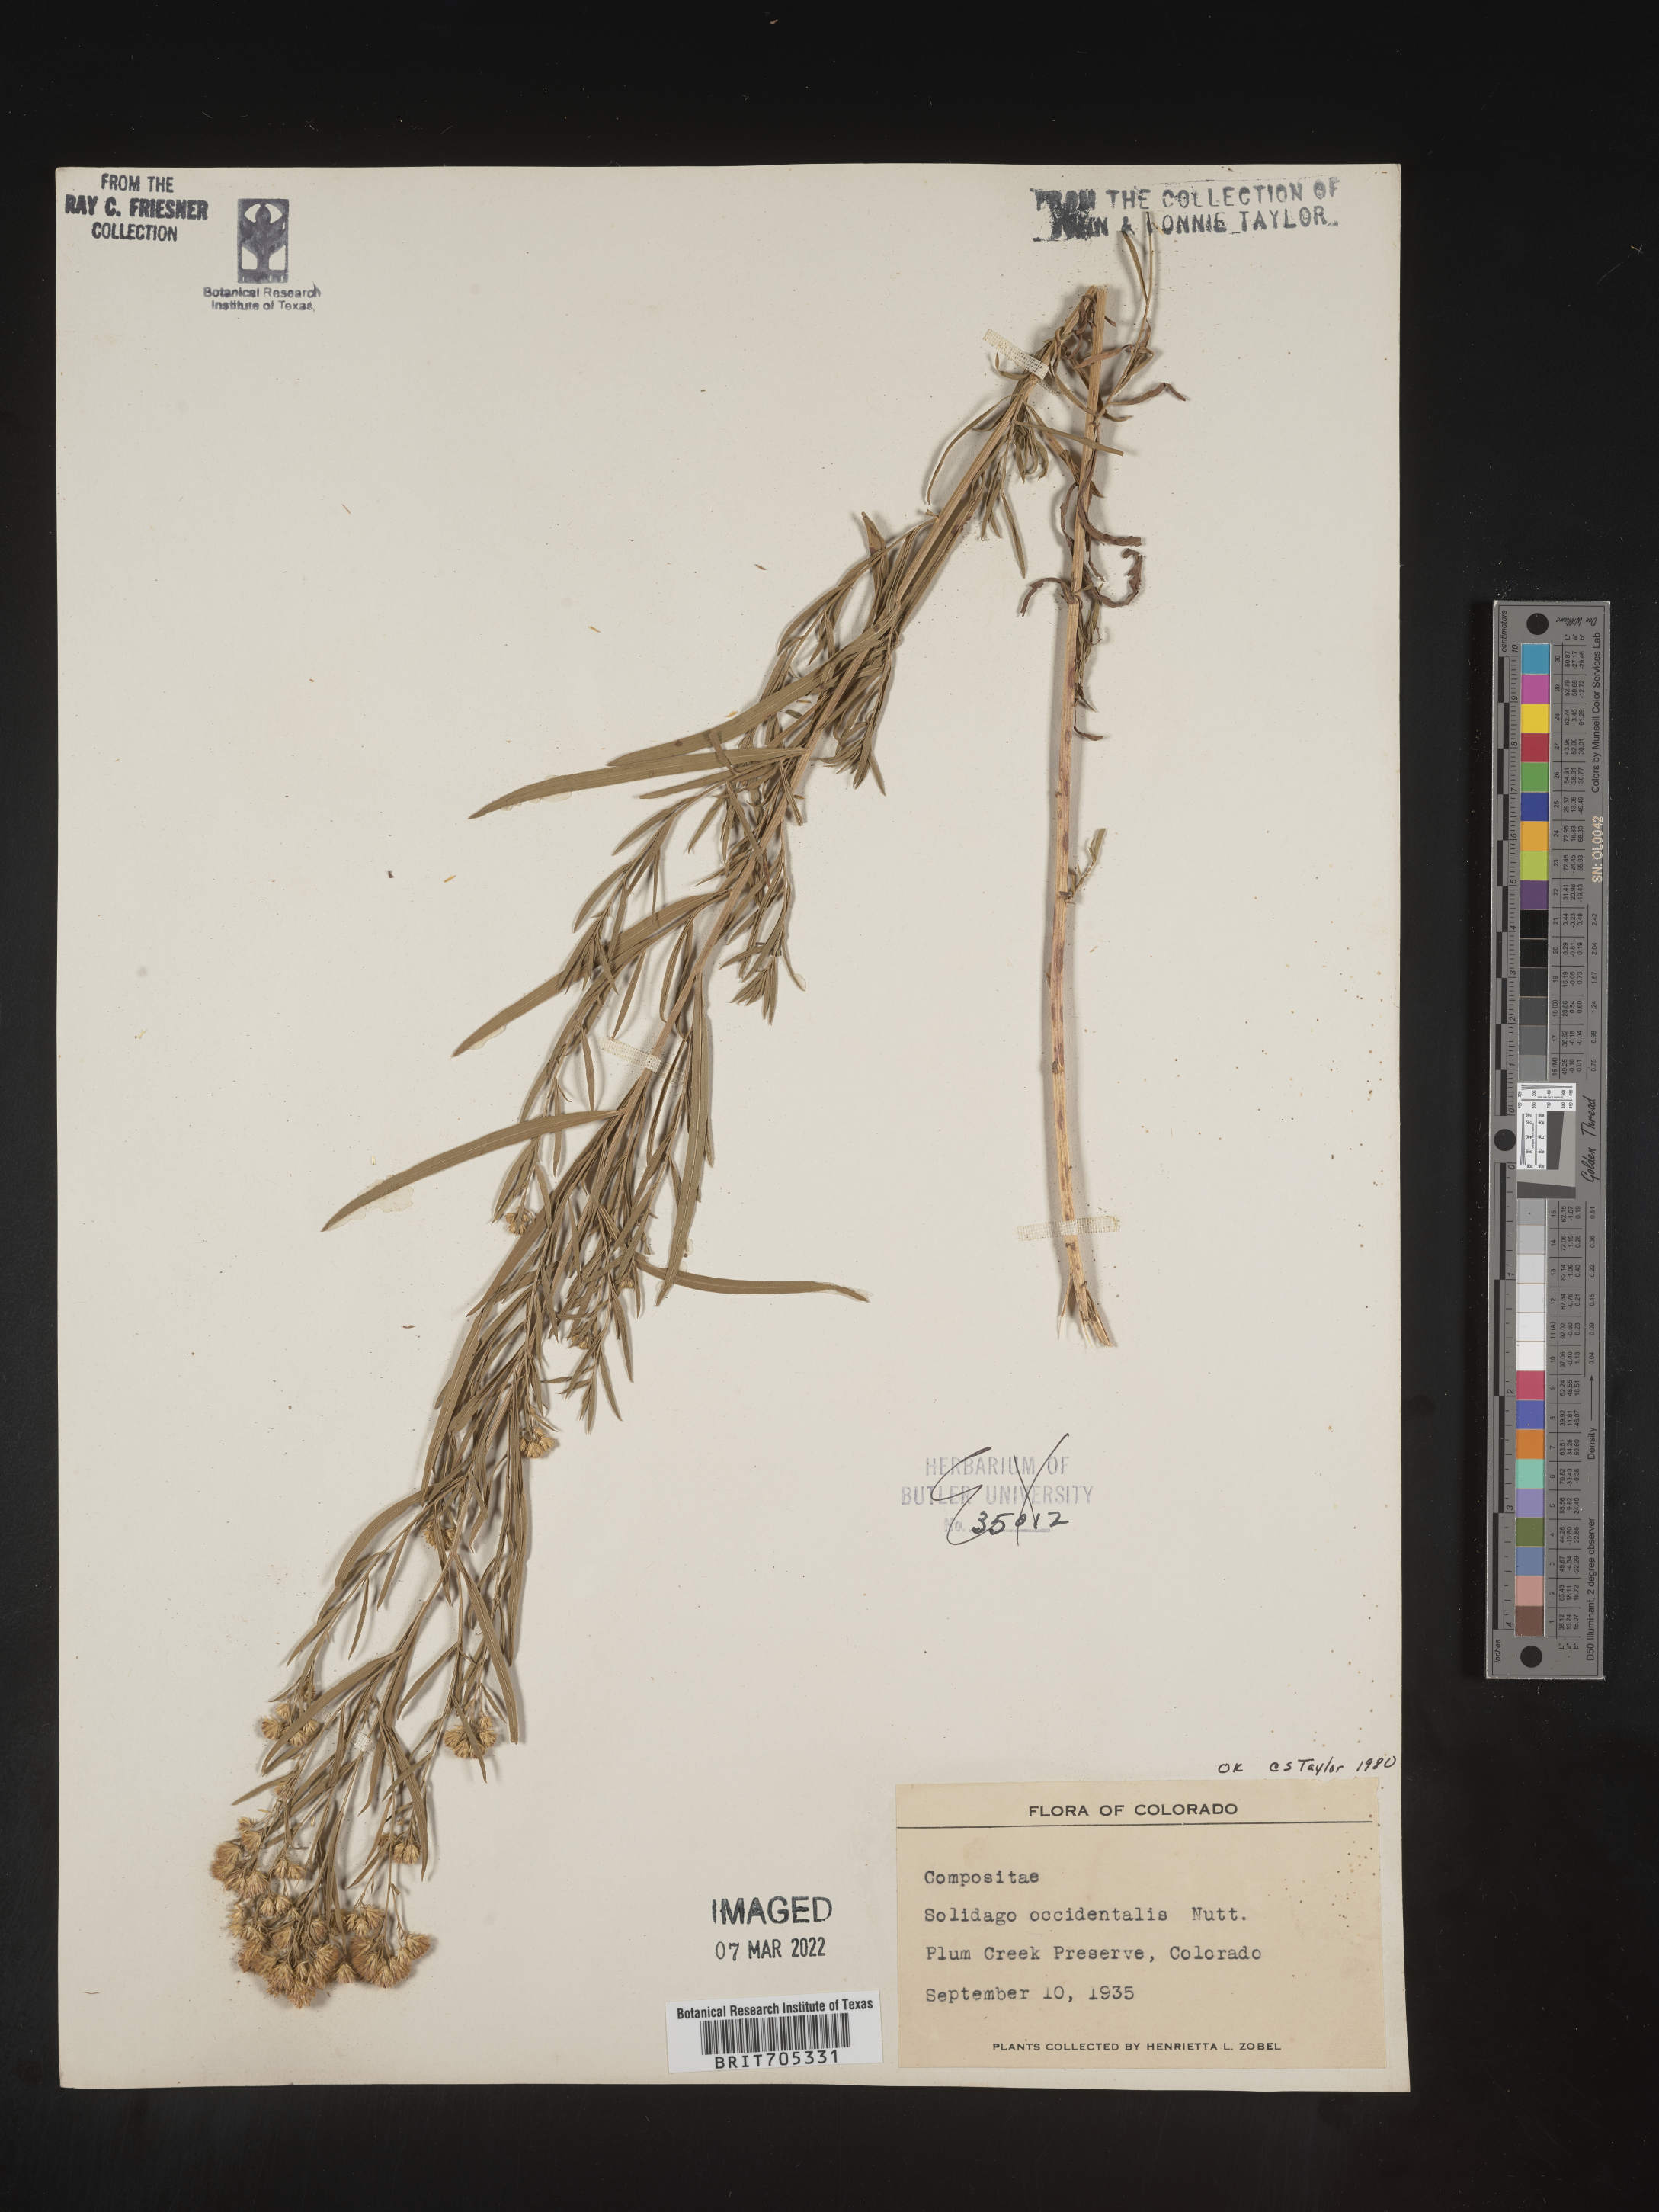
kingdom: Plantae
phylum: Tracheophyta
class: Magnoliopsida
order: Asterales
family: Asteraceae
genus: Euthamia
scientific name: Euthamia occidentalis
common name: Western goldentop
